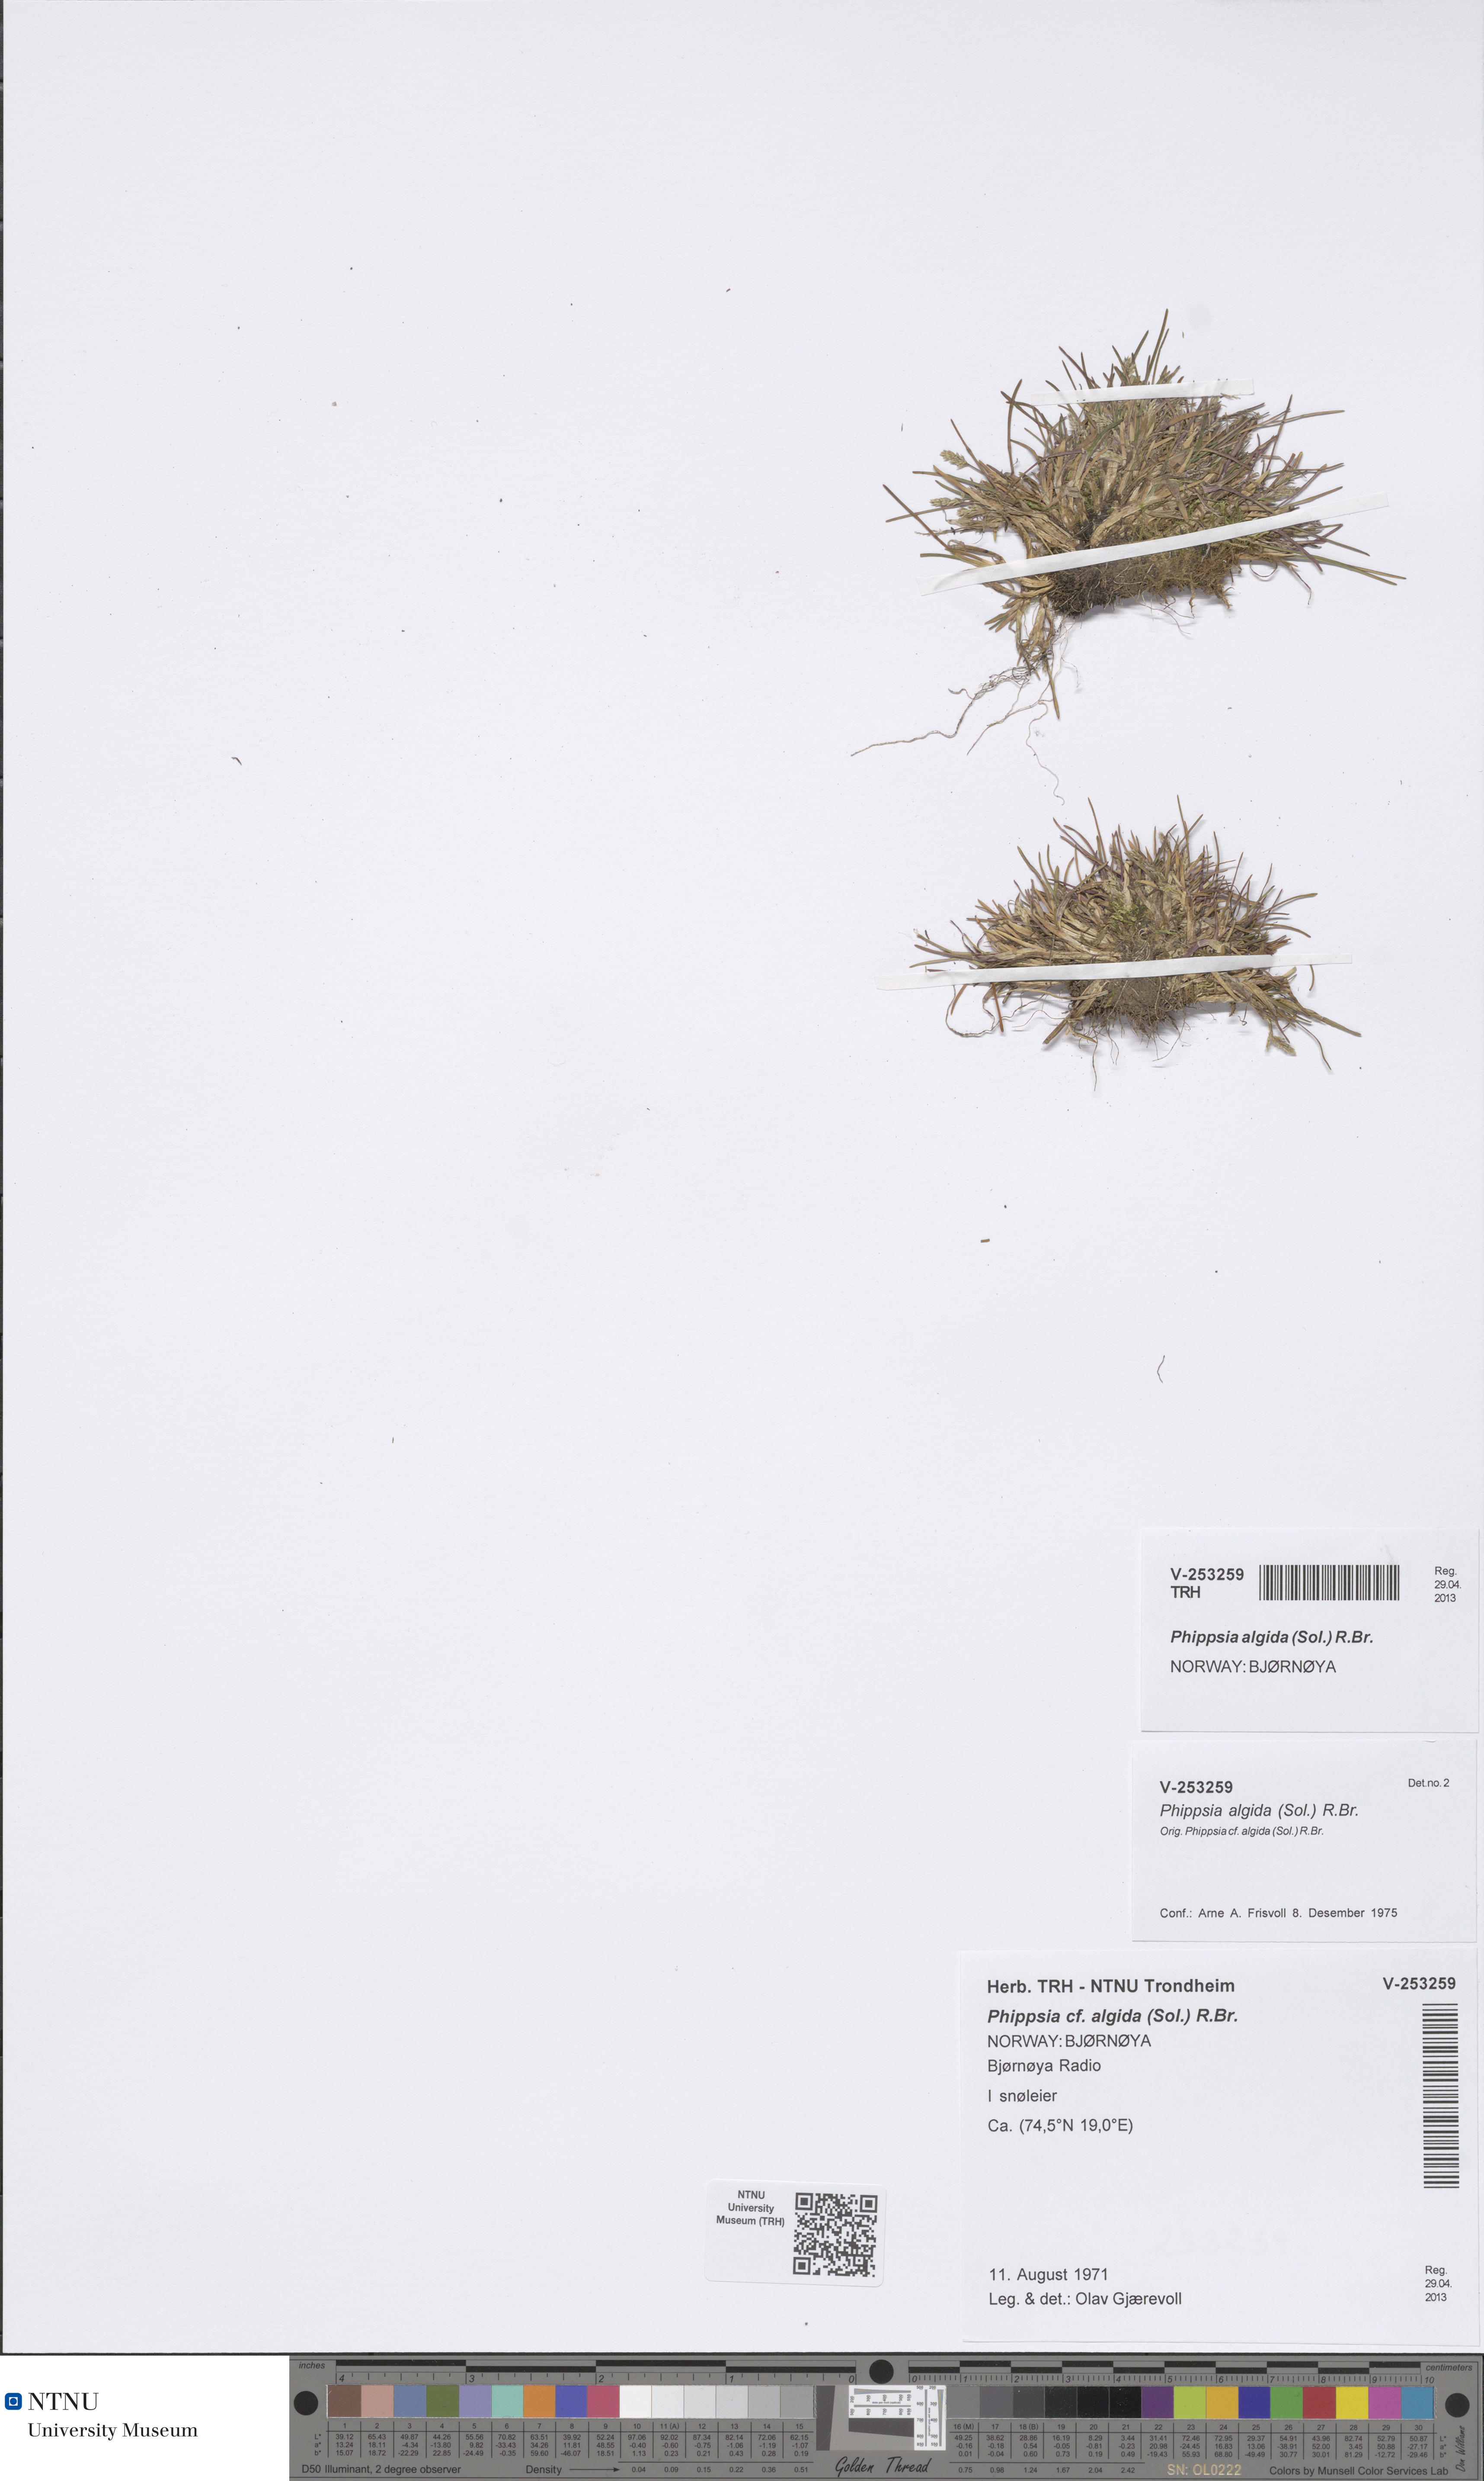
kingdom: Plantae
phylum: Tracheophyta
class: Liliopsida
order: Poales
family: Poaceae
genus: Phippsia
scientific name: Phippsia algida
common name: Ice grass
